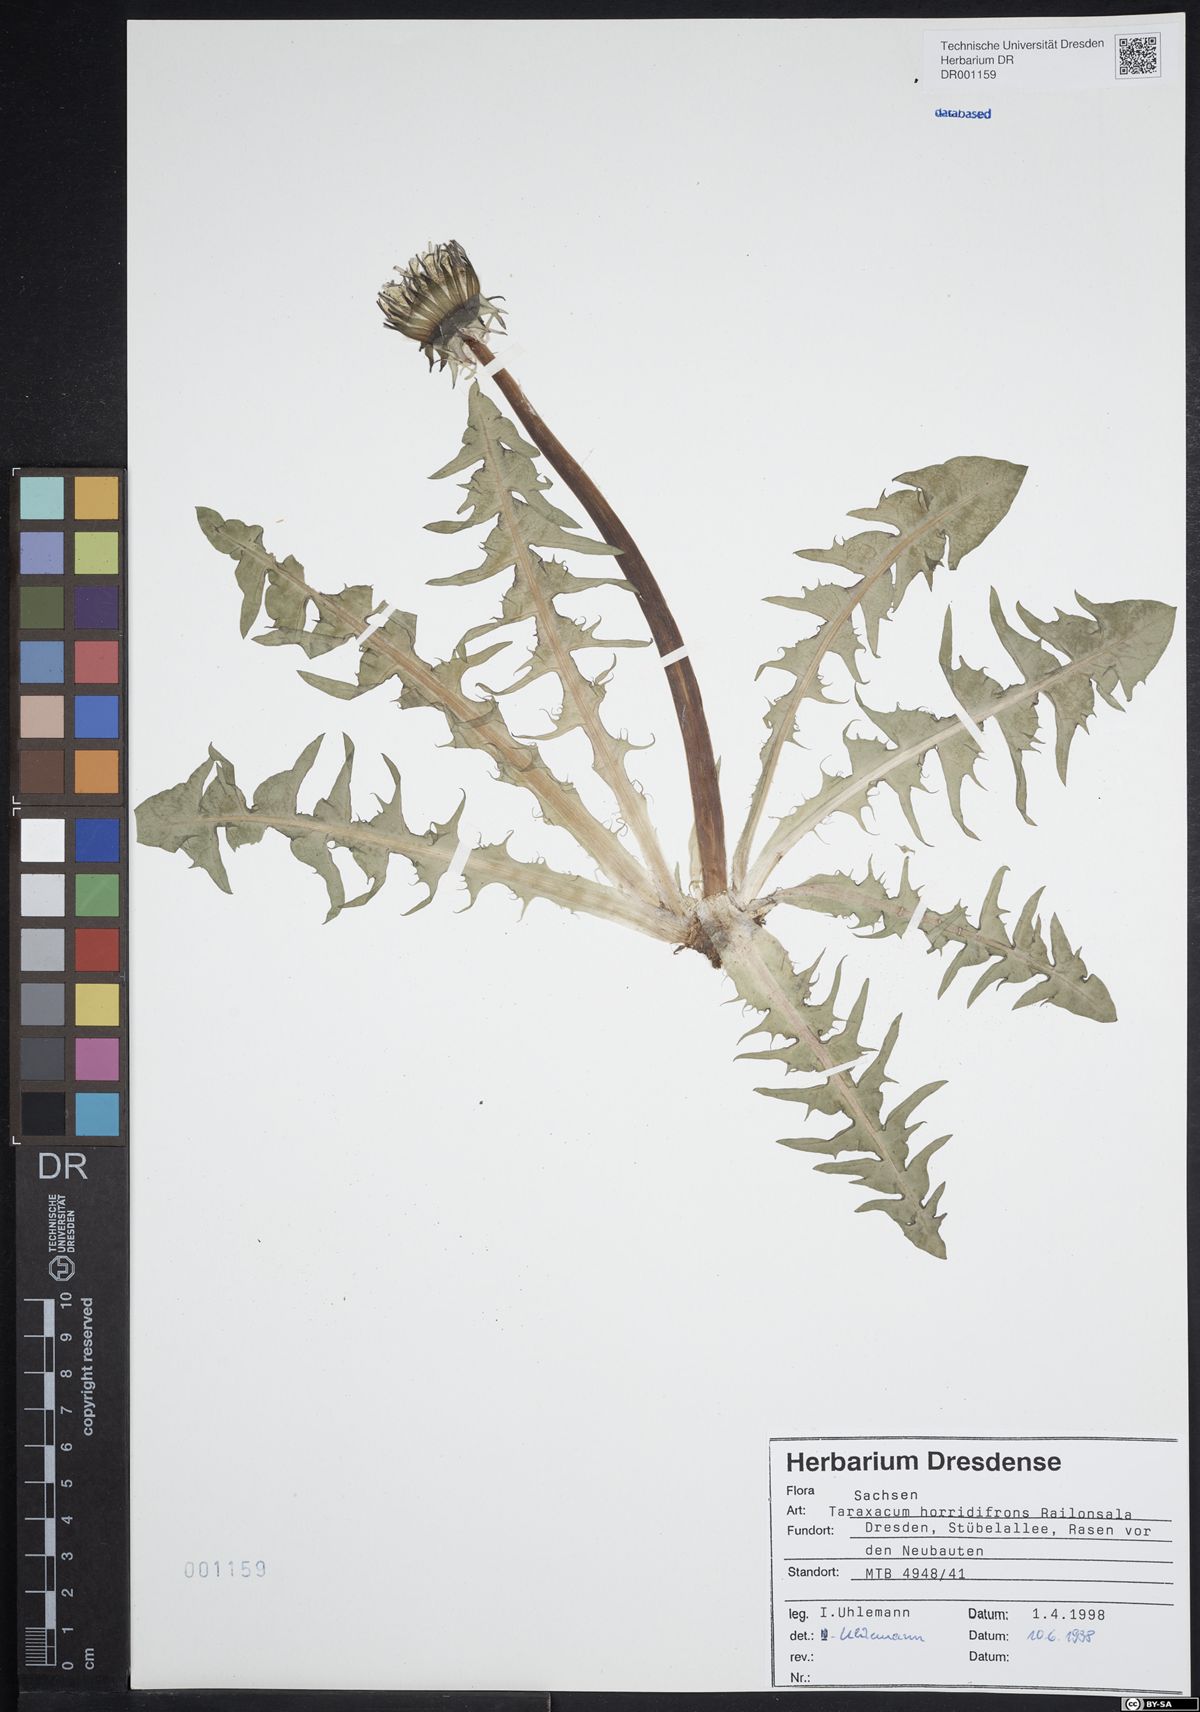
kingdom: Plantae
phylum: Tracheophyta
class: Magnoliopsida
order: Asterales
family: Asteraceae
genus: Taraxacum
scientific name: Taraxacum horridifrons
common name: Prickly-leaved dandelion
